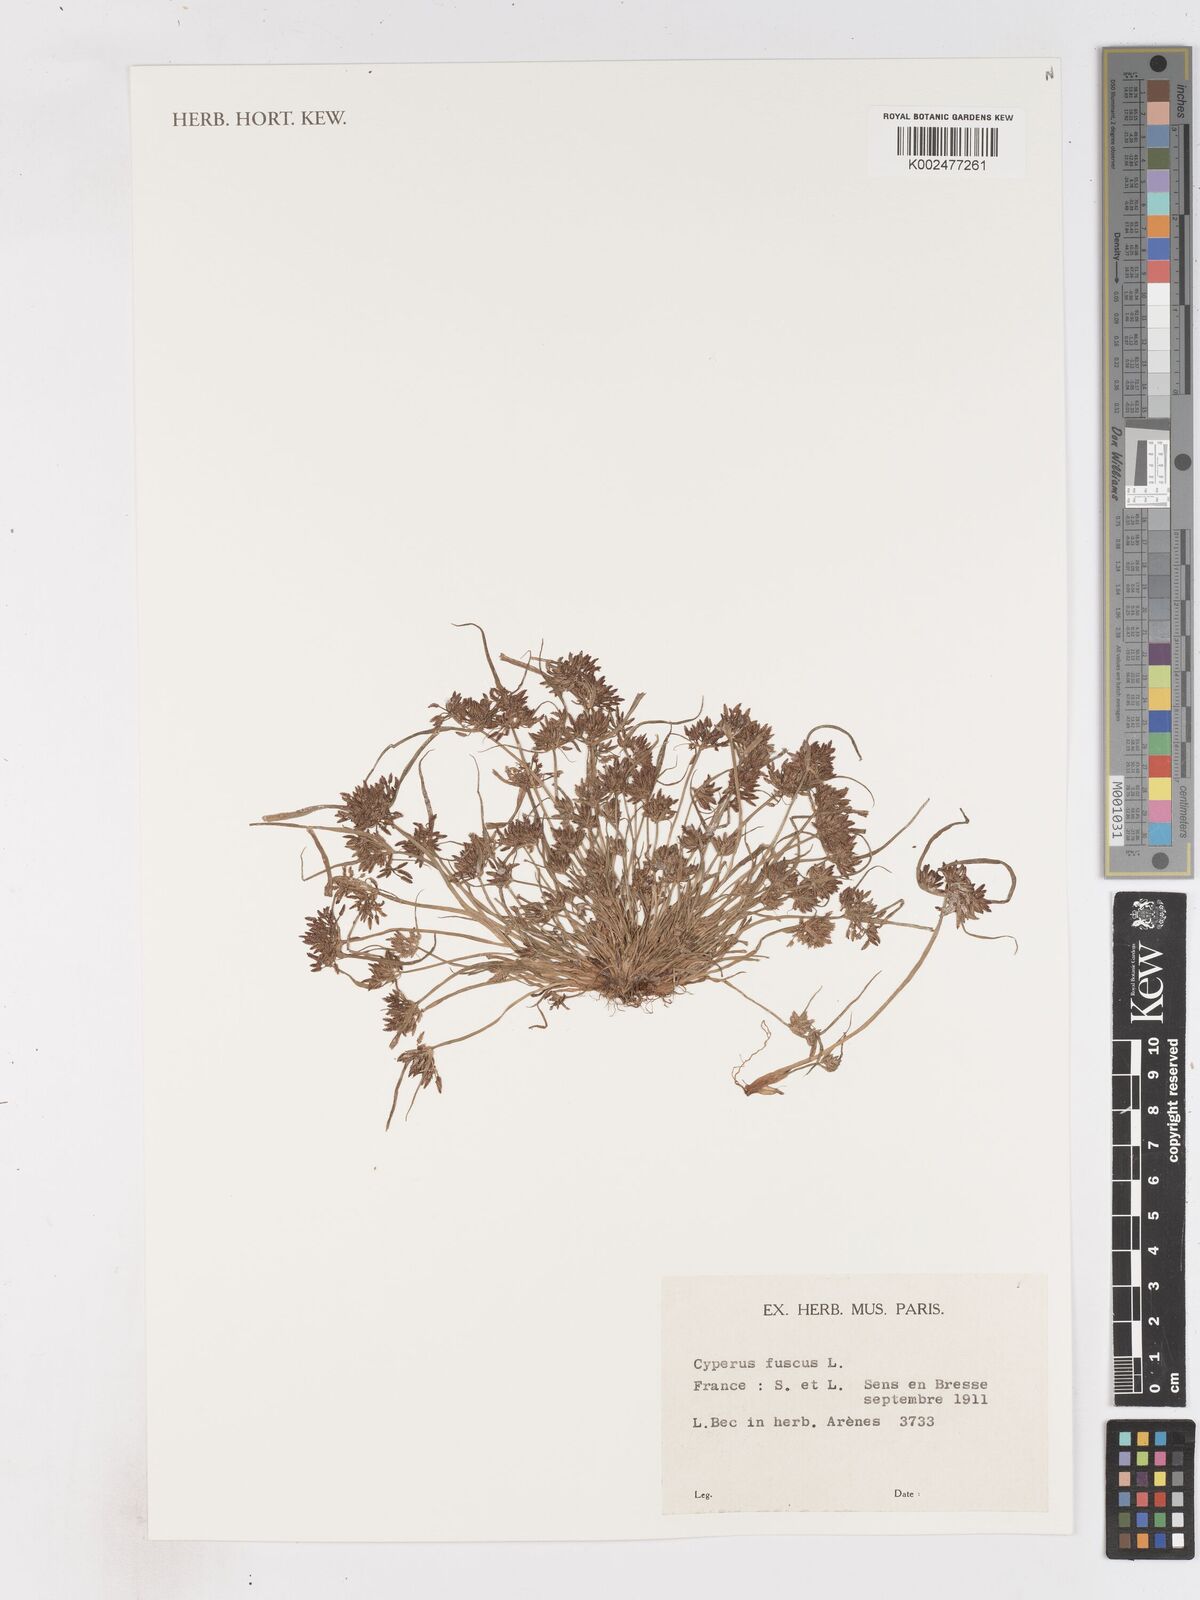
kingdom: Plantae
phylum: Tracheophyta
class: Liliopsida
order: Poales
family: Cyperaceae
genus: Cyperus
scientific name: Cyperus fuscus
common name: Brown galingale
